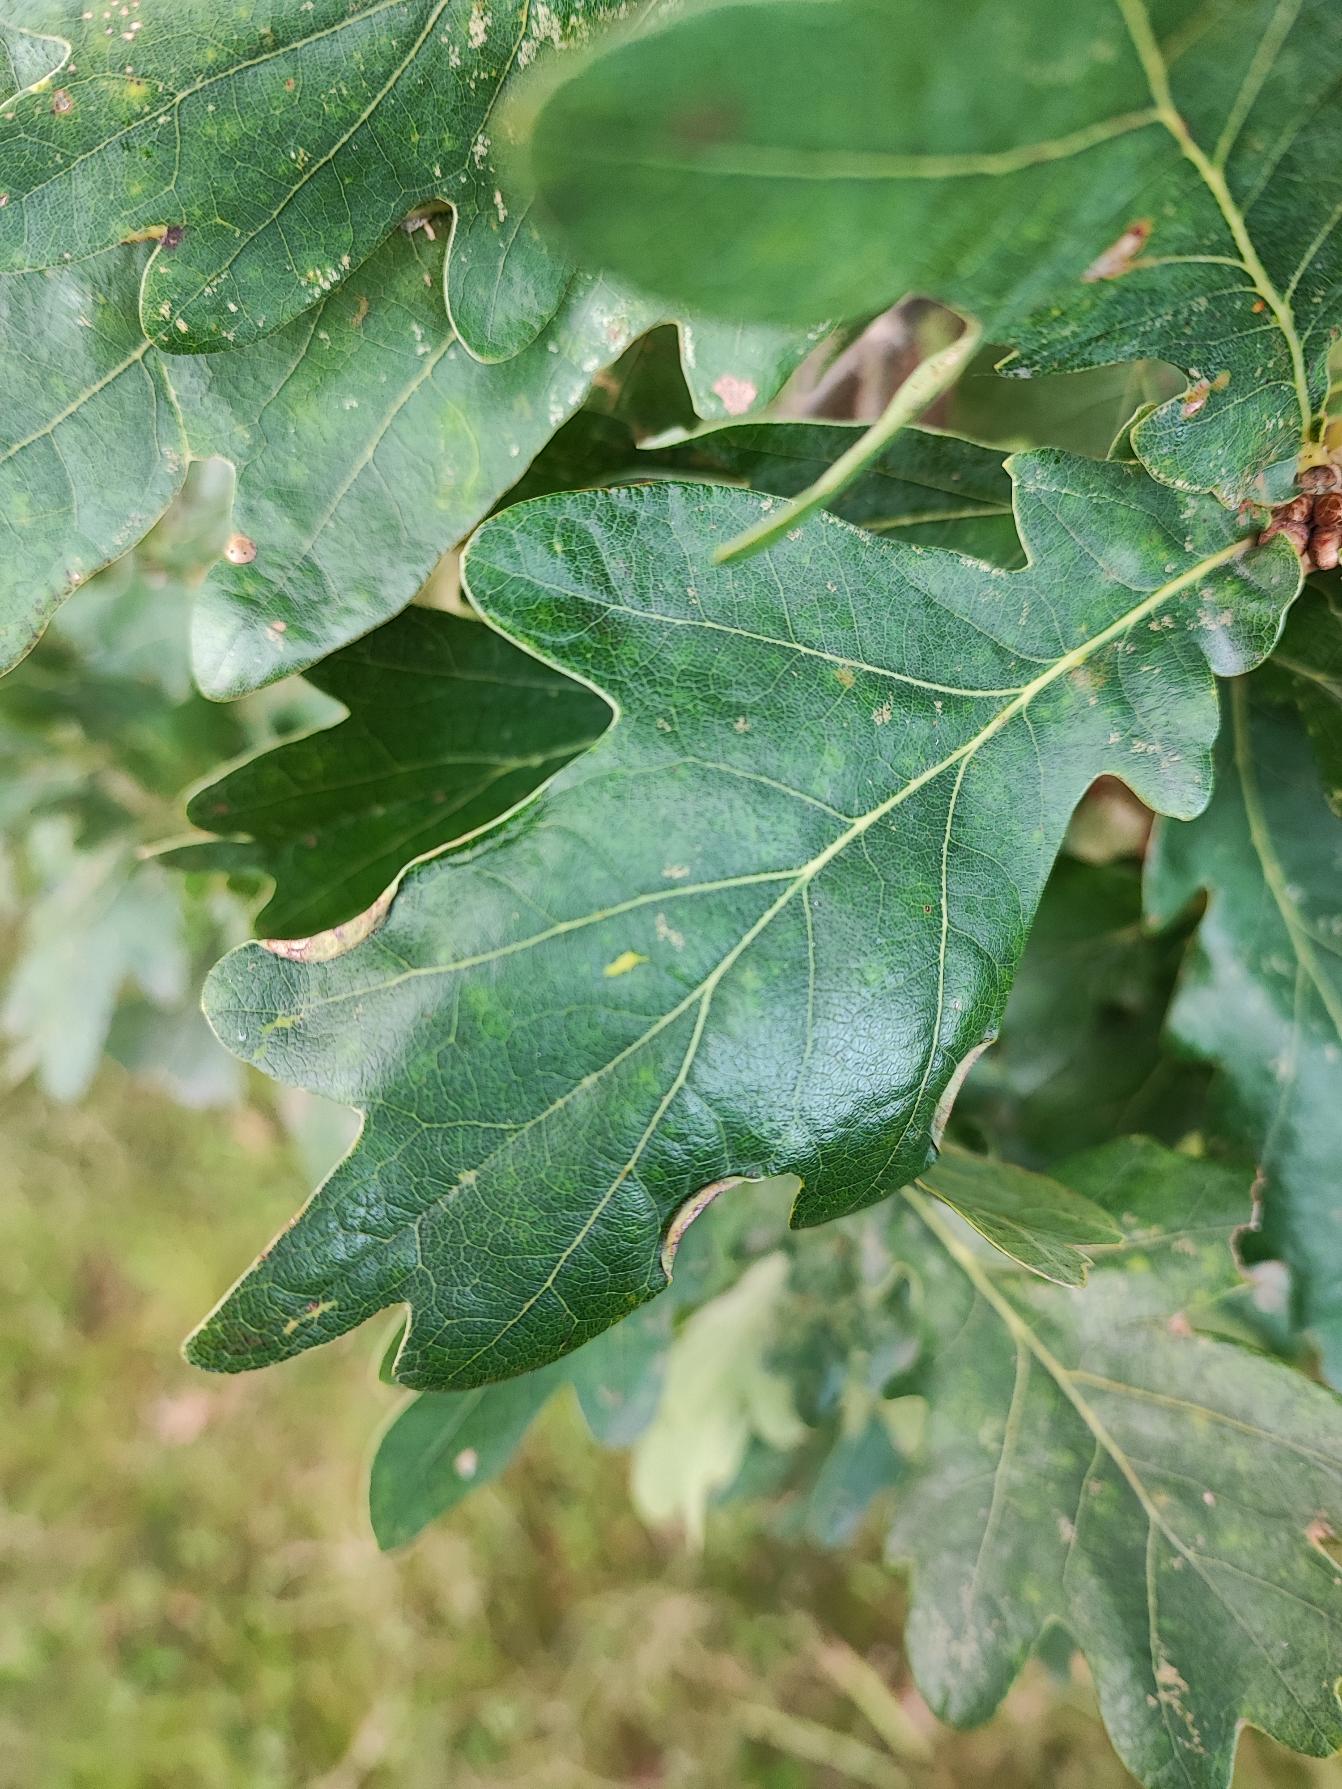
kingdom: Animalia
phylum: Arthropoda
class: Insecta
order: Diptera
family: Cecidomyiidae
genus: Macrodiplosis
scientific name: Macrodiplosis volvens
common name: Egerullegalmyg
